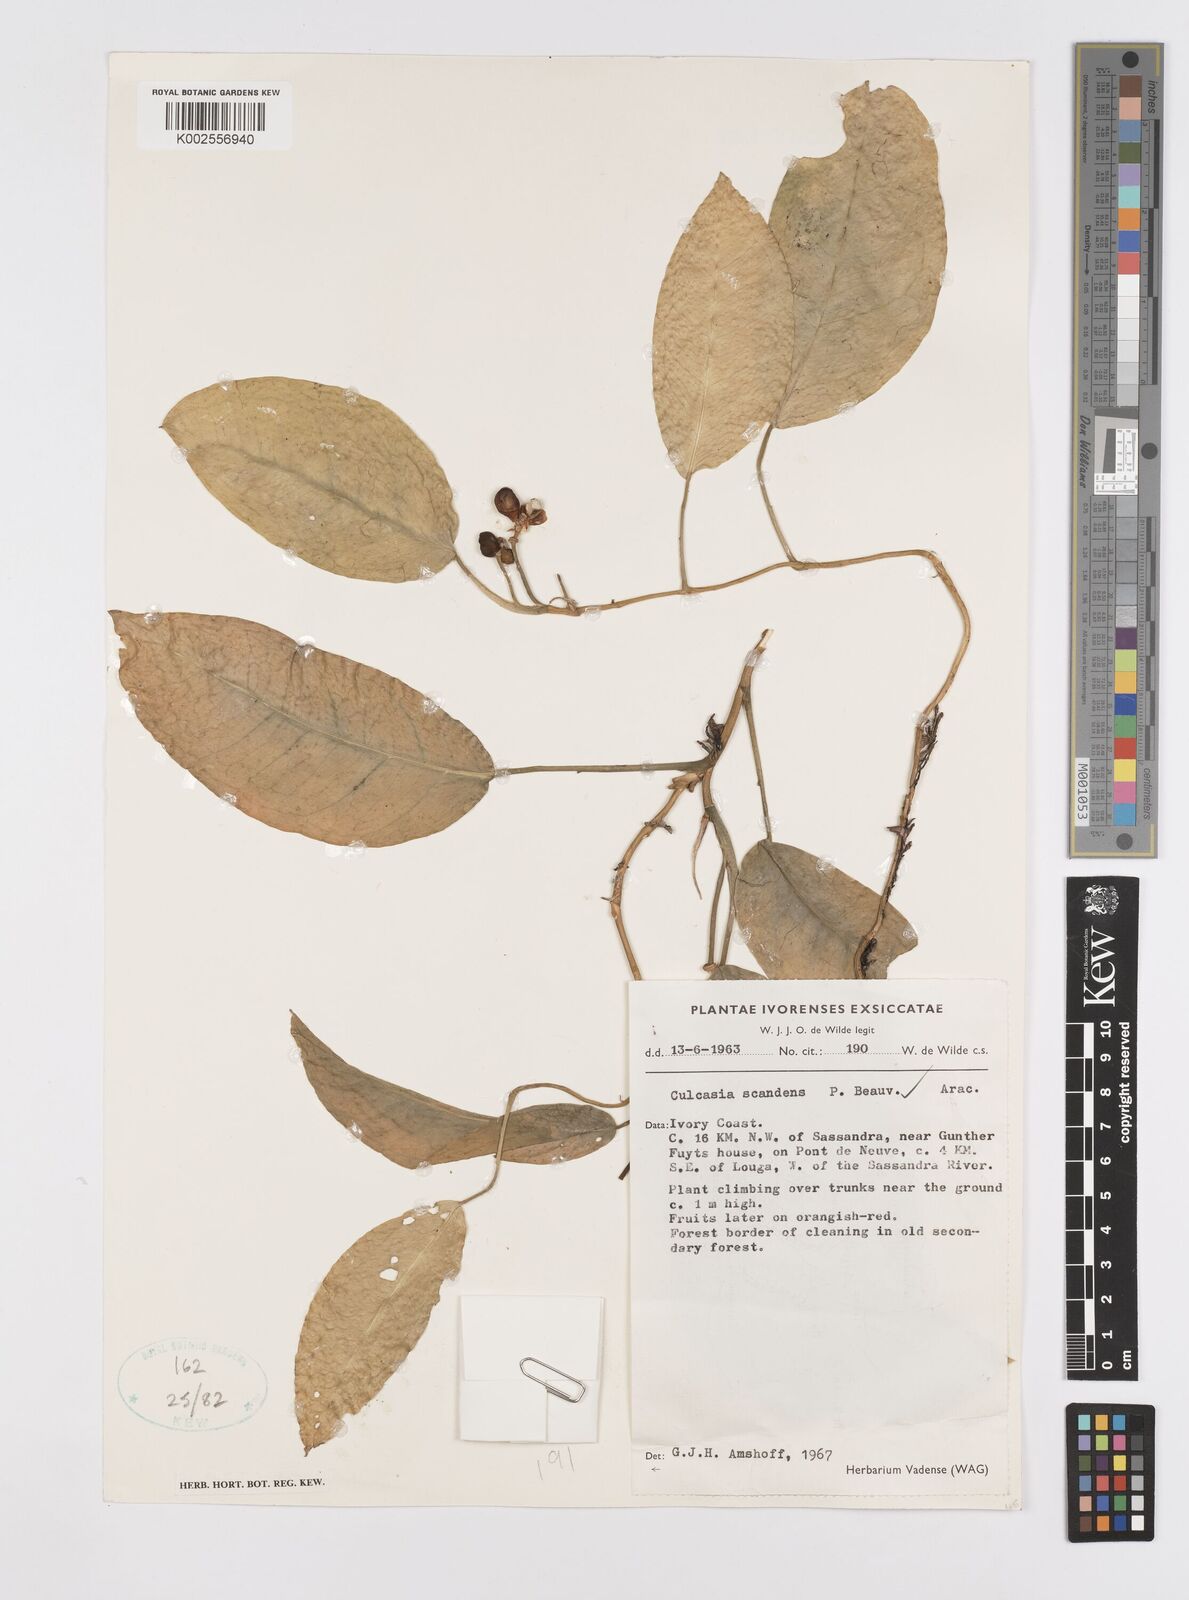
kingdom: Plantae
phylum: Tracheophyta
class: Liliopsida
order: Alismatales
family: Araceae
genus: Culcasia
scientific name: Culcasia scandens
